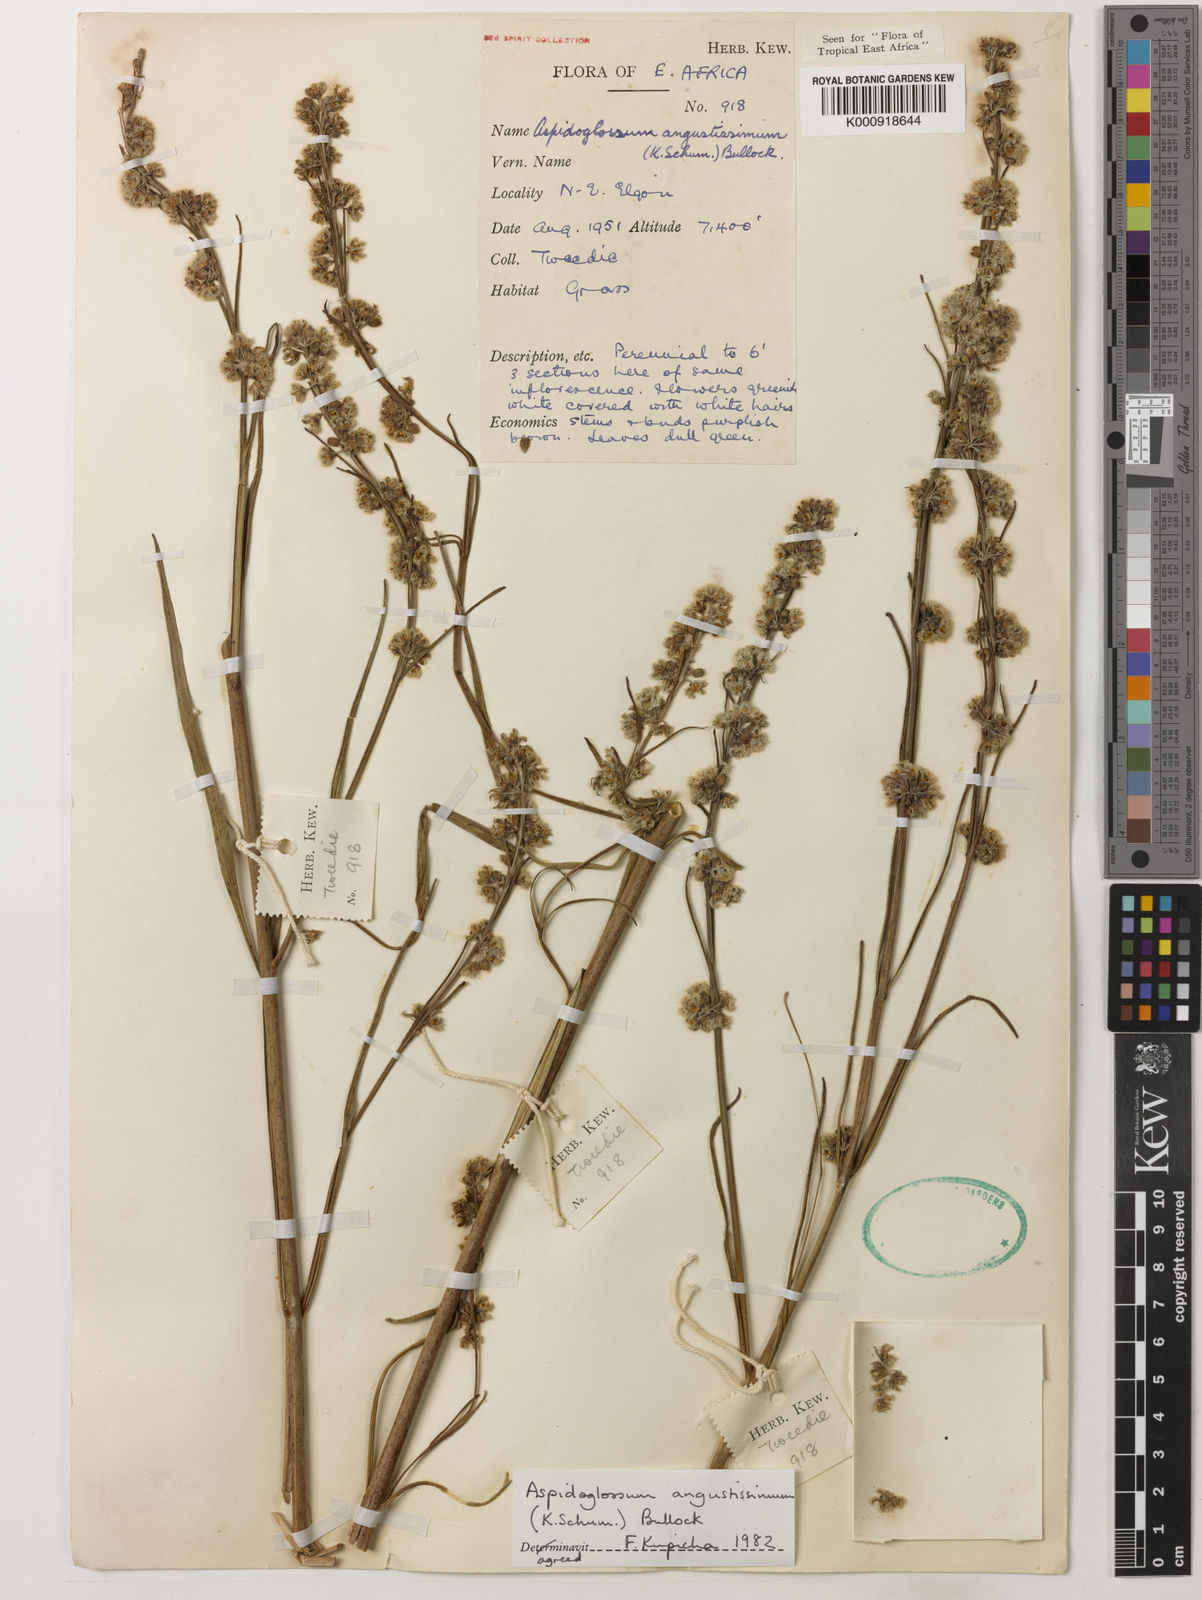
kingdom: Plantae
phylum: Tracheophyta
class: Magnoliopsida
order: Gentianales
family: Apocynaceae
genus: Aspidoglossum
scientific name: Aspidoglossum angustissimum
